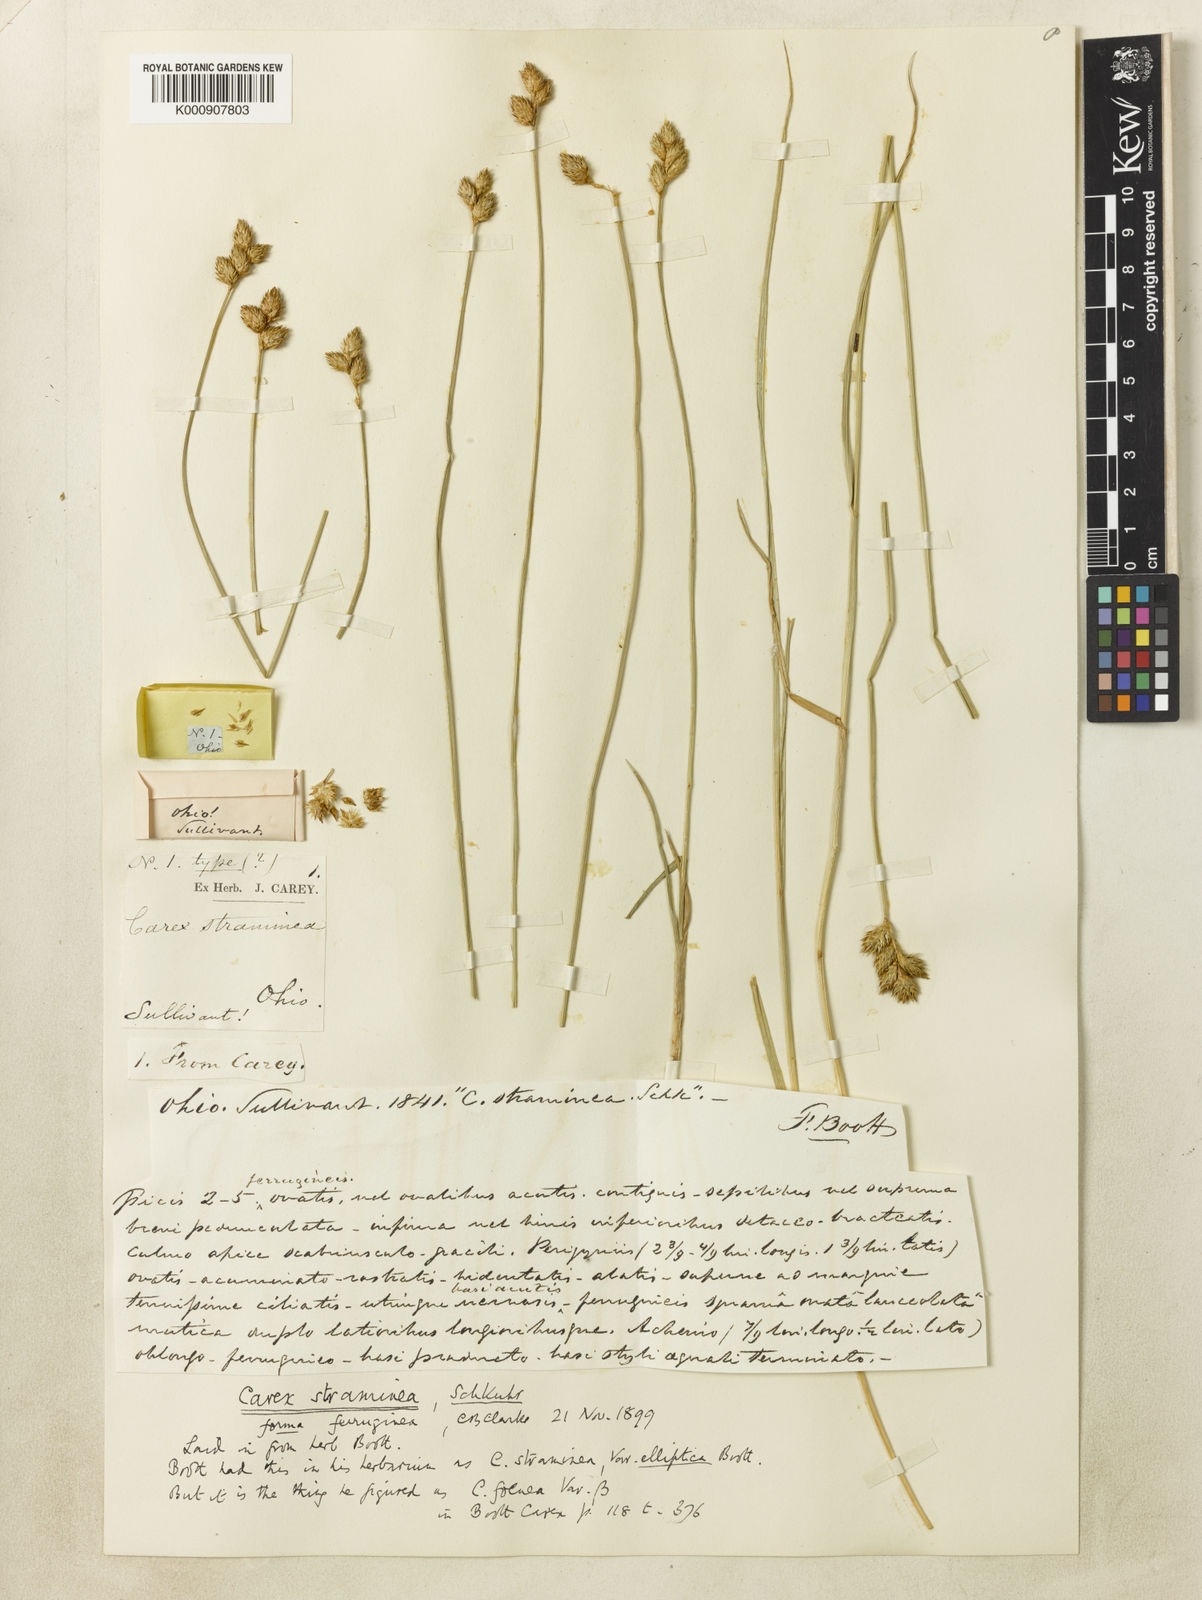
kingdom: Plantae
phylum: Tracheophyta
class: Liliopsida
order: Poales
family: Cyperaceae
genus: Carex
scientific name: Carex subrecta
